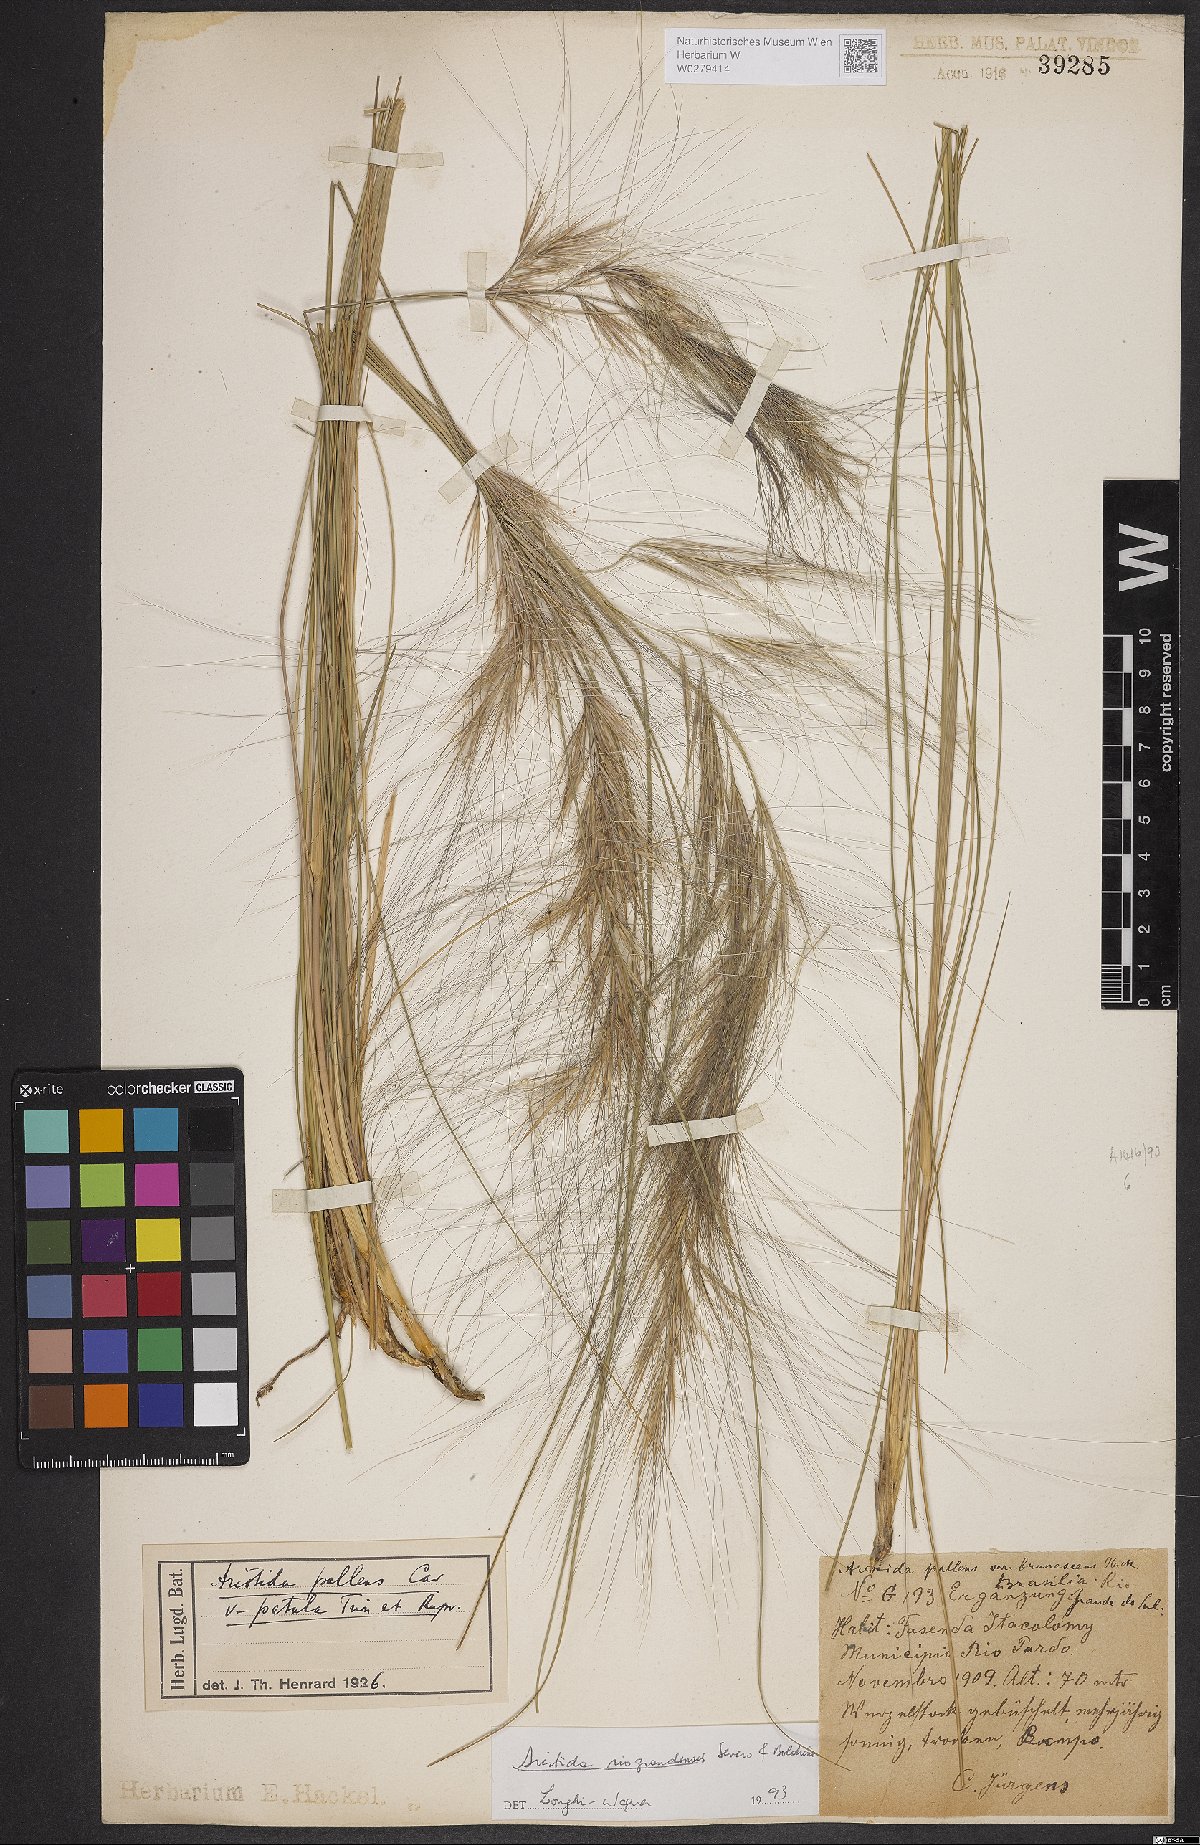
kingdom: Plantae
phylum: Tracheophyta
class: Liliopsida
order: Poales
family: Poaceae
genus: Aristida
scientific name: Aristida riograndensis
